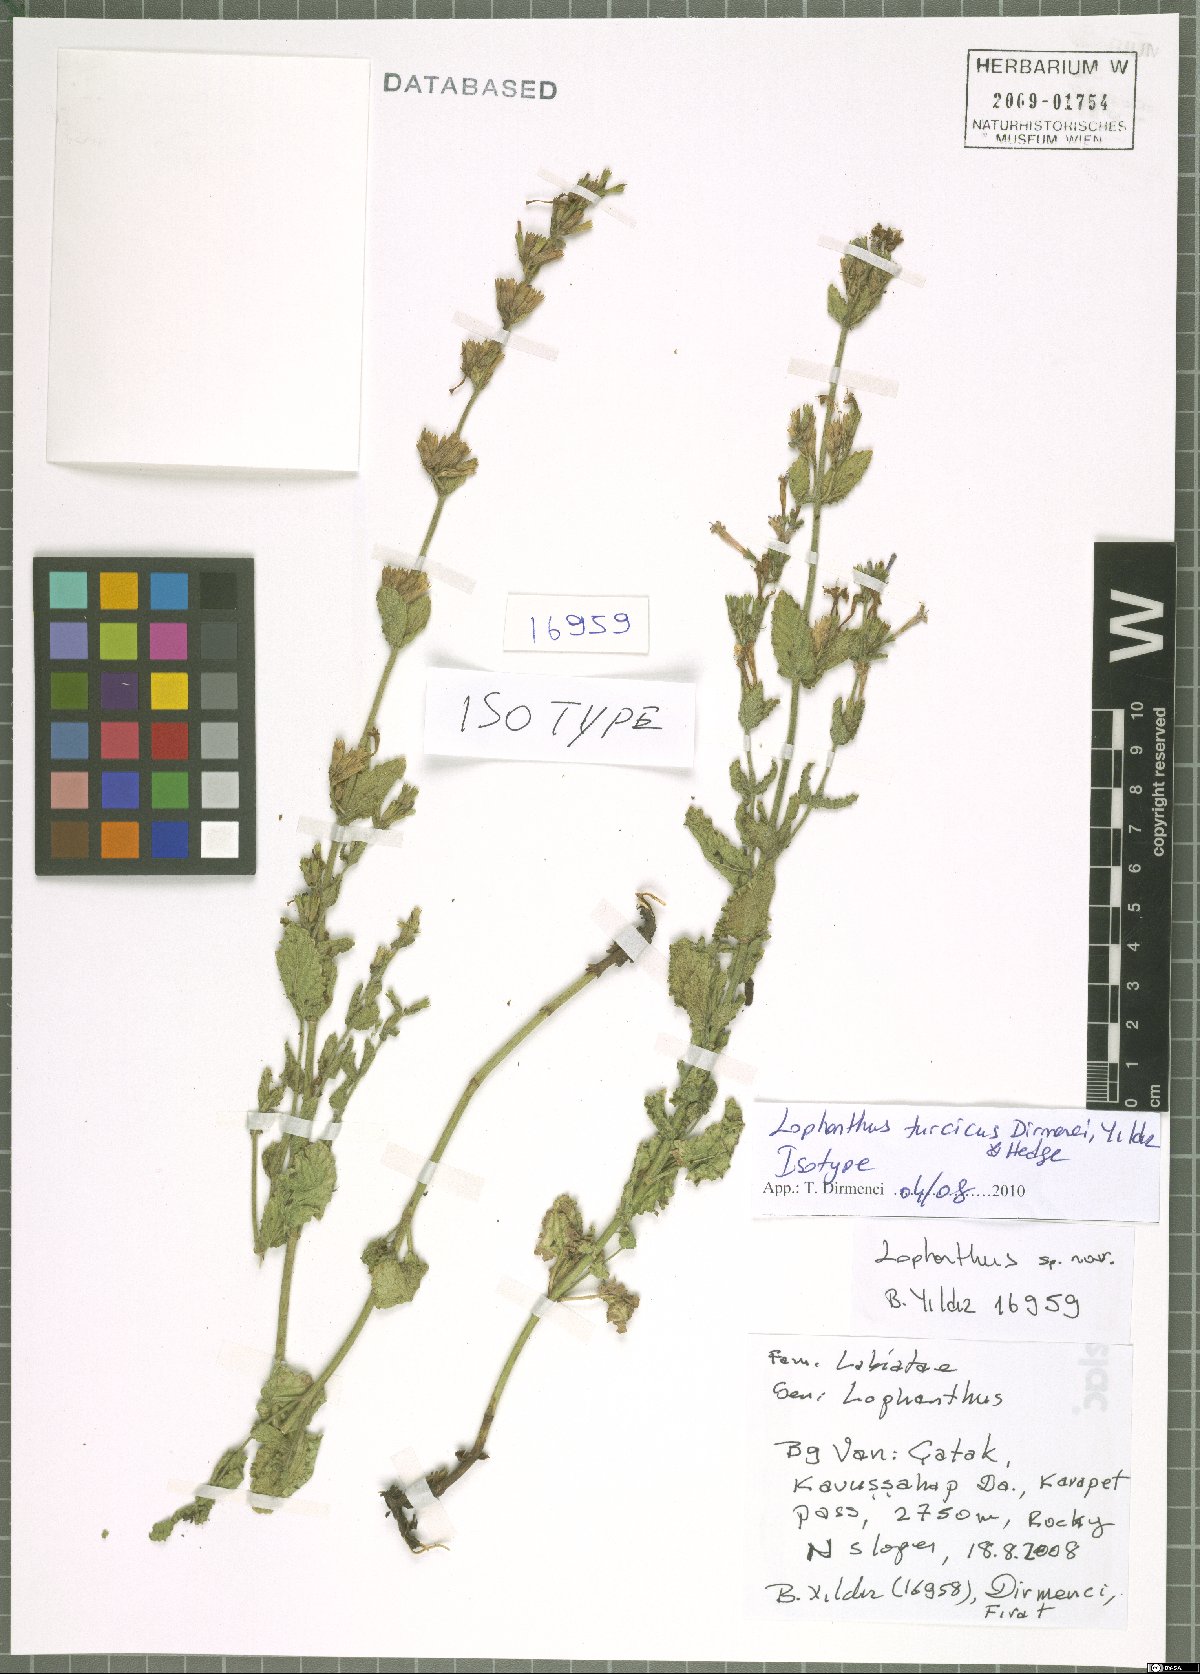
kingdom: Plantae
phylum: Tracheophyta
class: Magnoliopsida
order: Lamiales
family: Lamiaceae
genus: Nepeta
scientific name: Nepeta turcica
